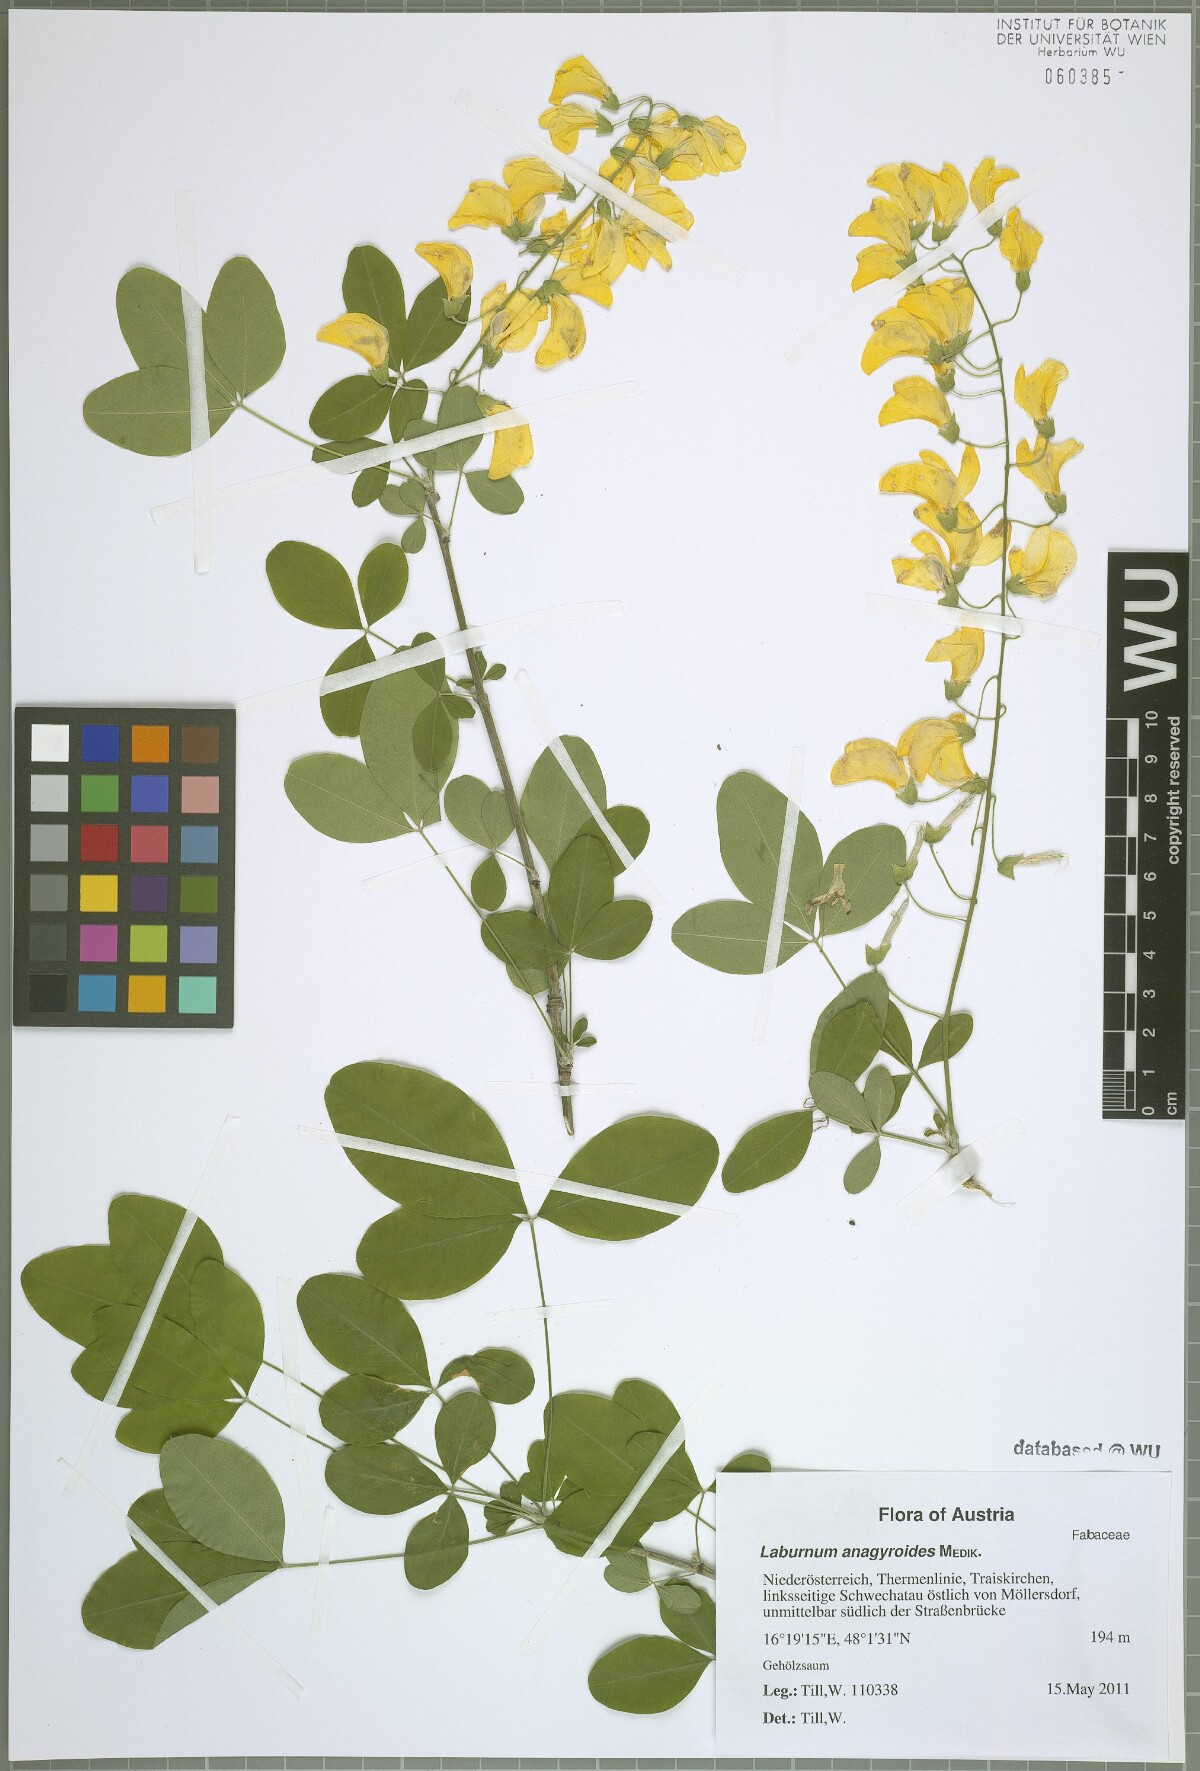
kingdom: Plantae
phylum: Tracheophyta
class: Magnoliopsida
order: Fabales
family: Fabaceae
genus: Laburnum
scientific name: Laburnum anagyroides
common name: Laburnum
